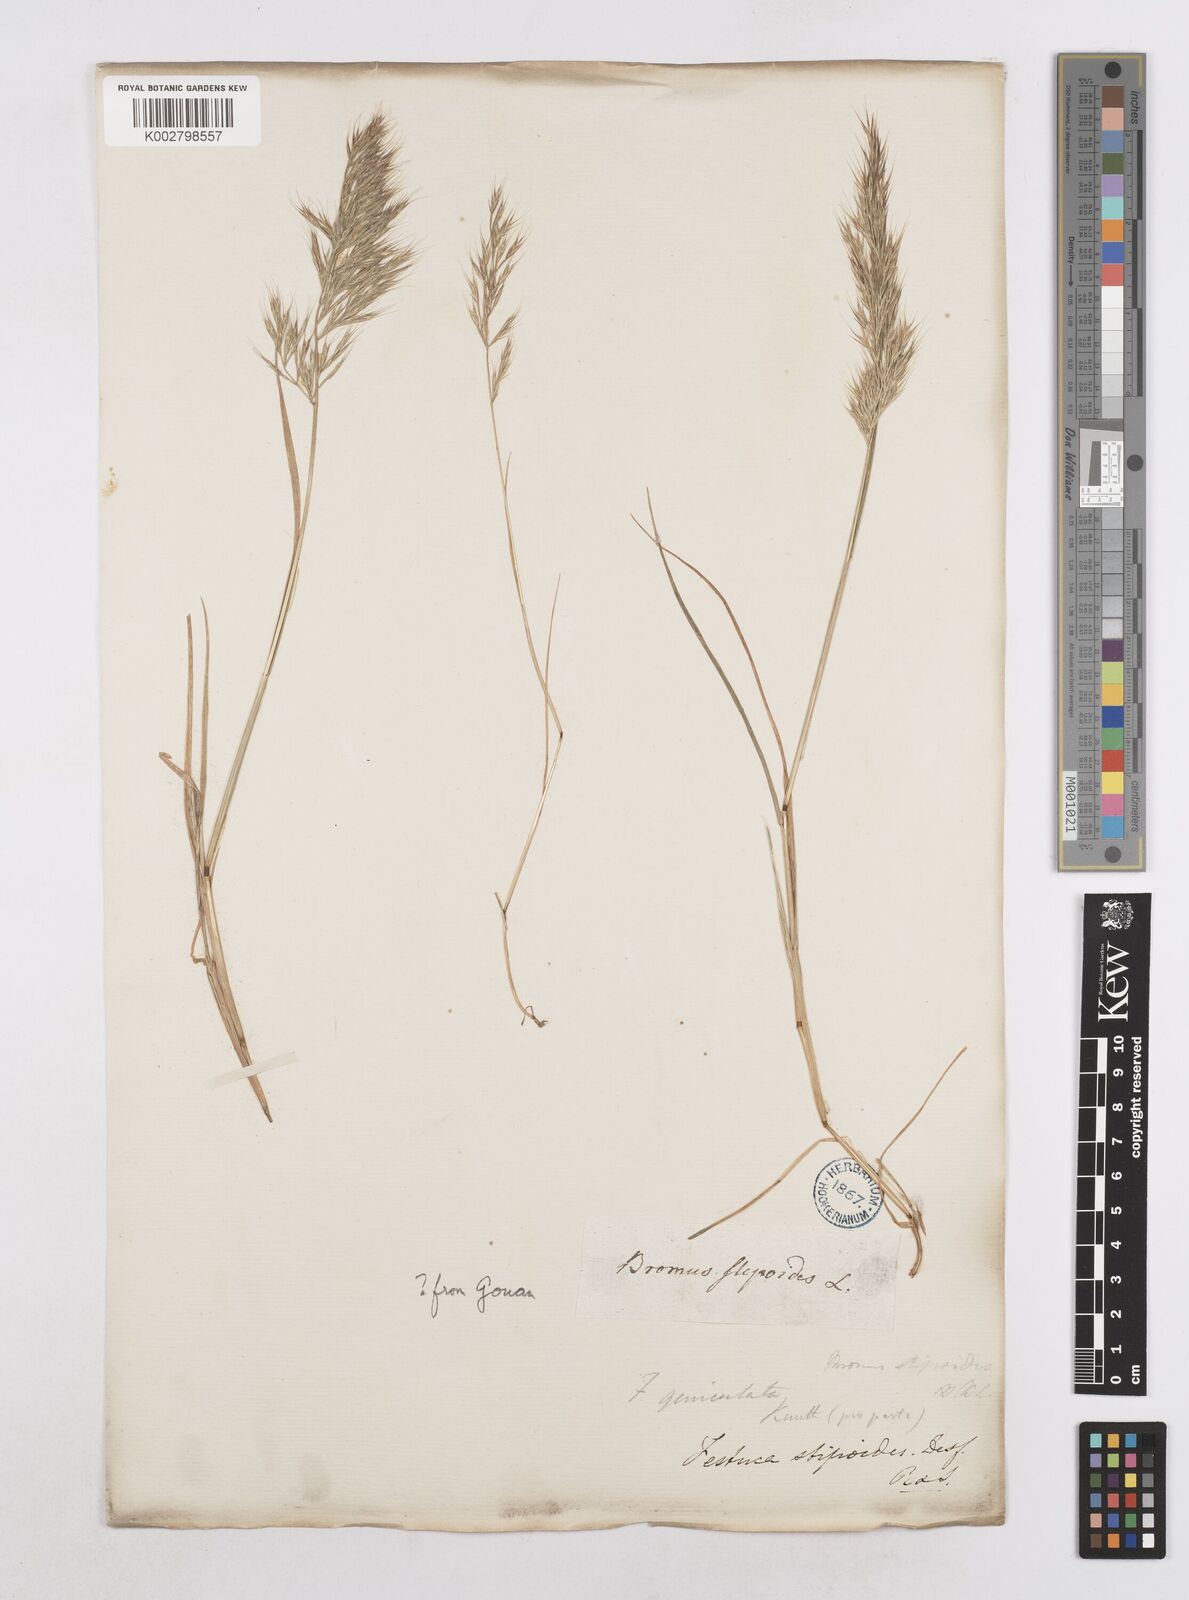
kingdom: Plantae
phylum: Tracheophyta
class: Liliopsida
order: Poales
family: Poaceae
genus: Festuca
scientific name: Festuca geniculata
